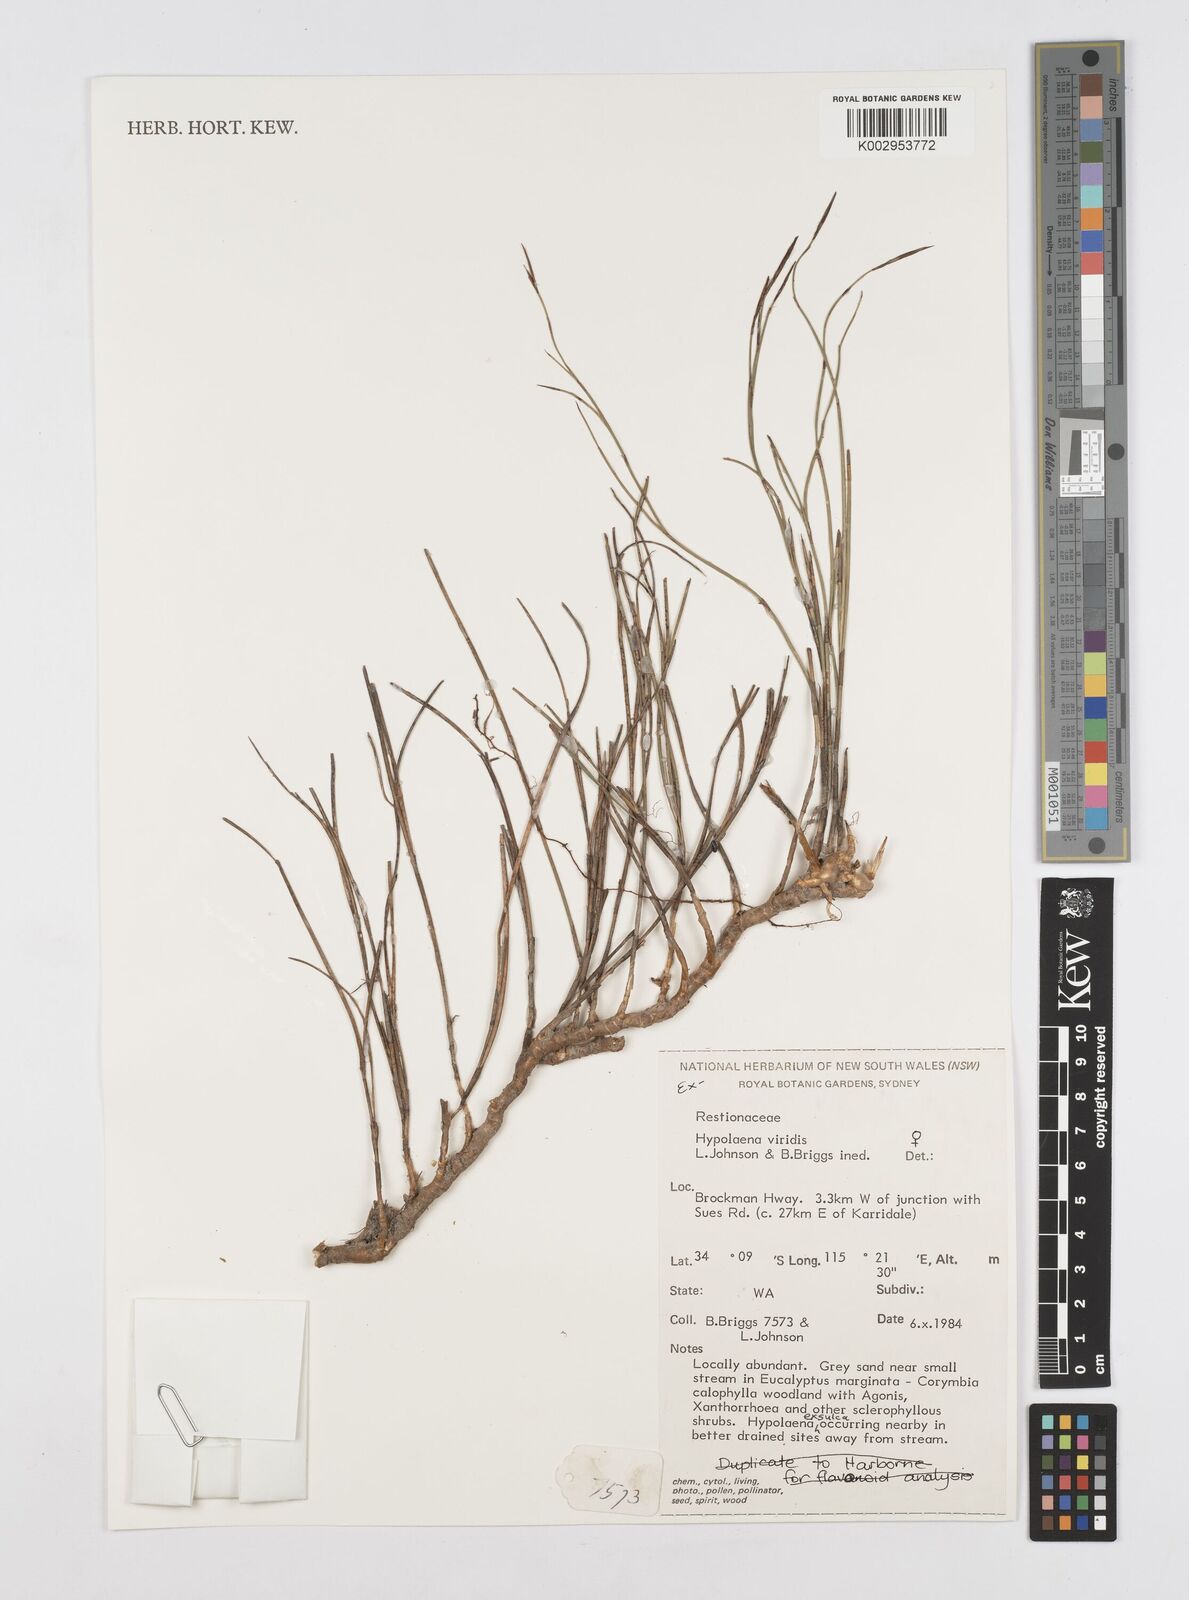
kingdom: Plantae
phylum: Tracheophyta
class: Liliopsida
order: Poales
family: Restionaceae
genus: Hypolaena
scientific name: Hypolaena viridis
